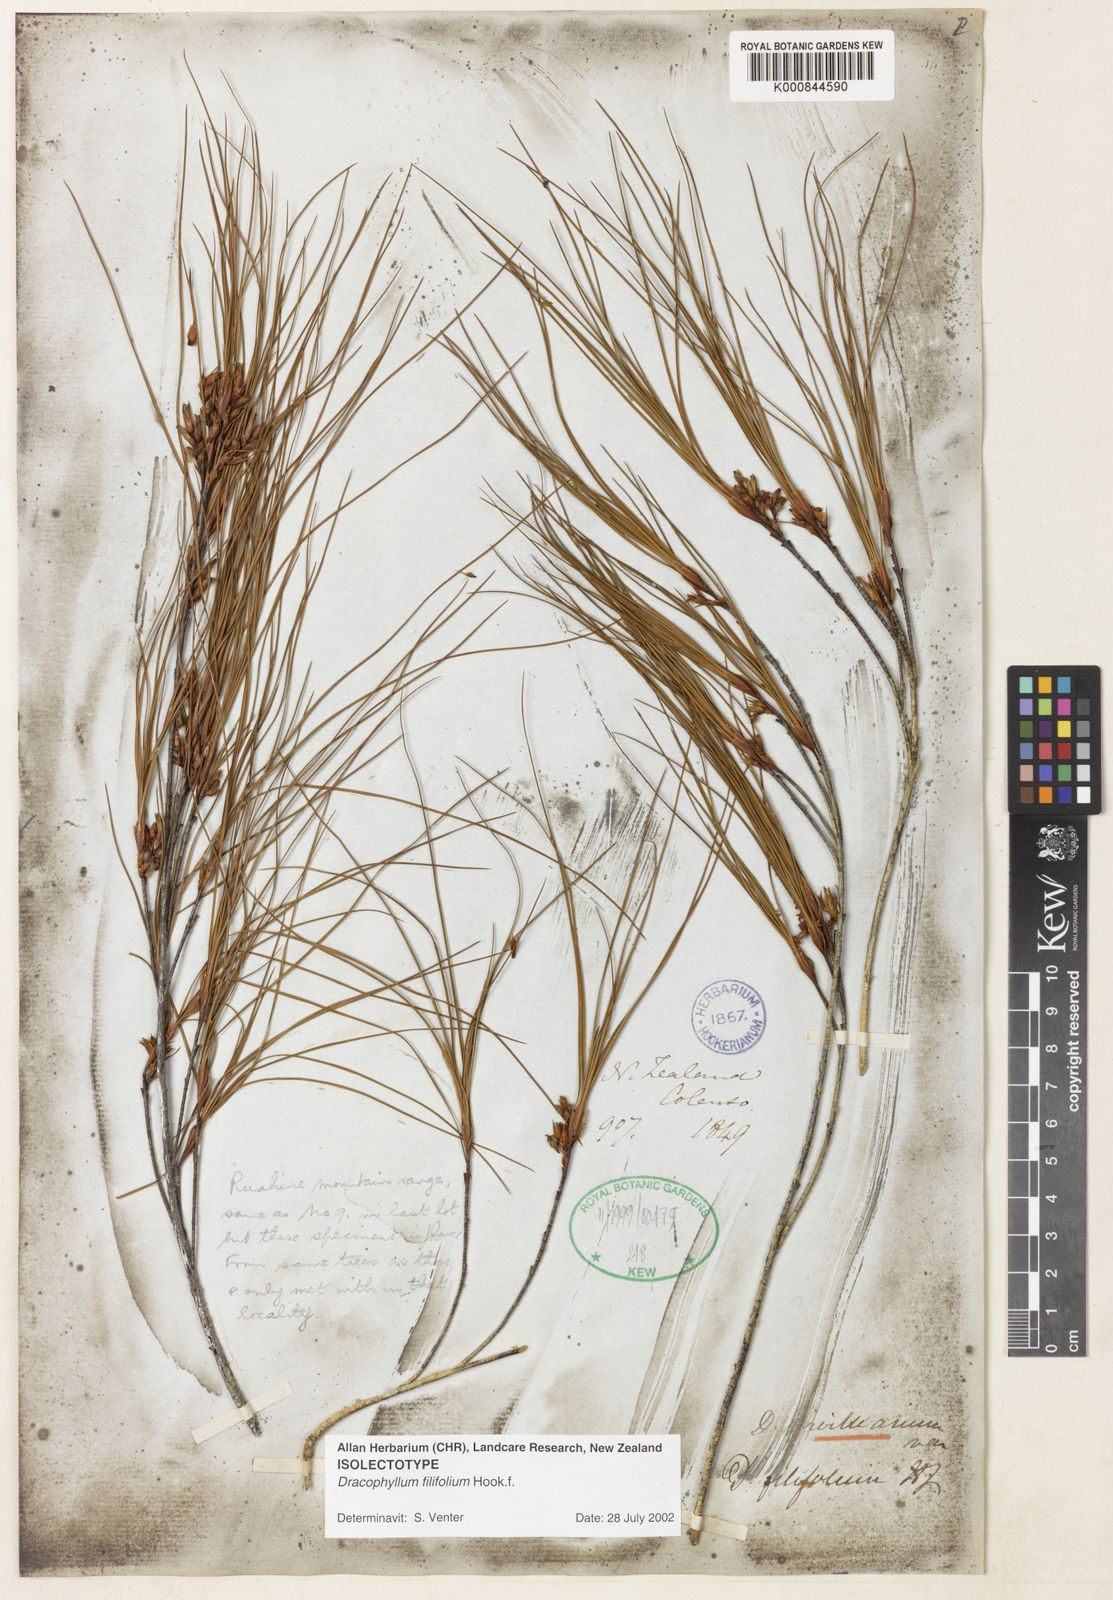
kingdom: Plantae
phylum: Tracheophyta
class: Magnoliopsida
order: Ericales
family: Ericaceae
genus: Dracophyllum
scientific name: Dracophyllum filifolium
